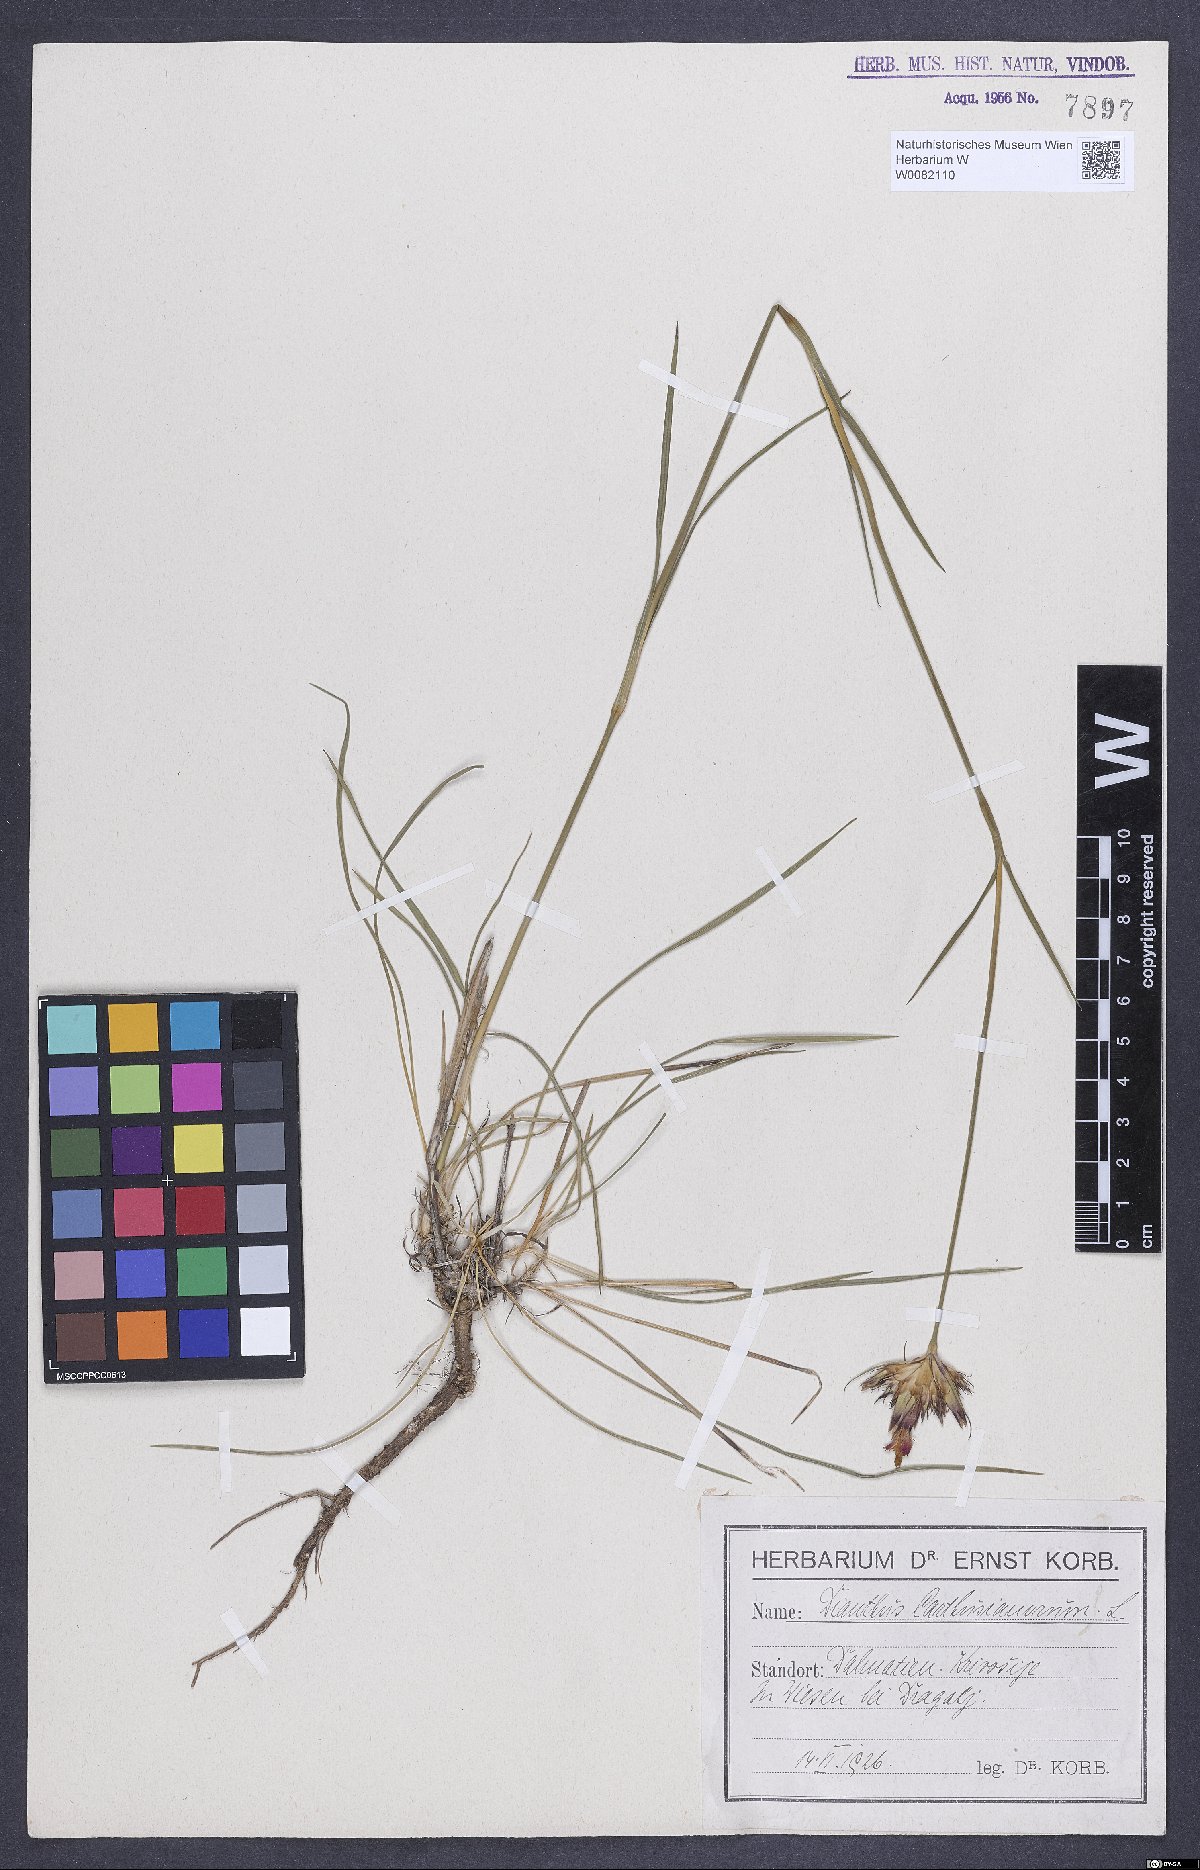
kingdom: Plantae
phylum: Tracheophyta
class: Magnoliopsida
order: Caryophyllales
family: Caryophyllaceae
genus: Dianthus
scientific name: Dianthus carthusianorum
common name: Carthusian pink
